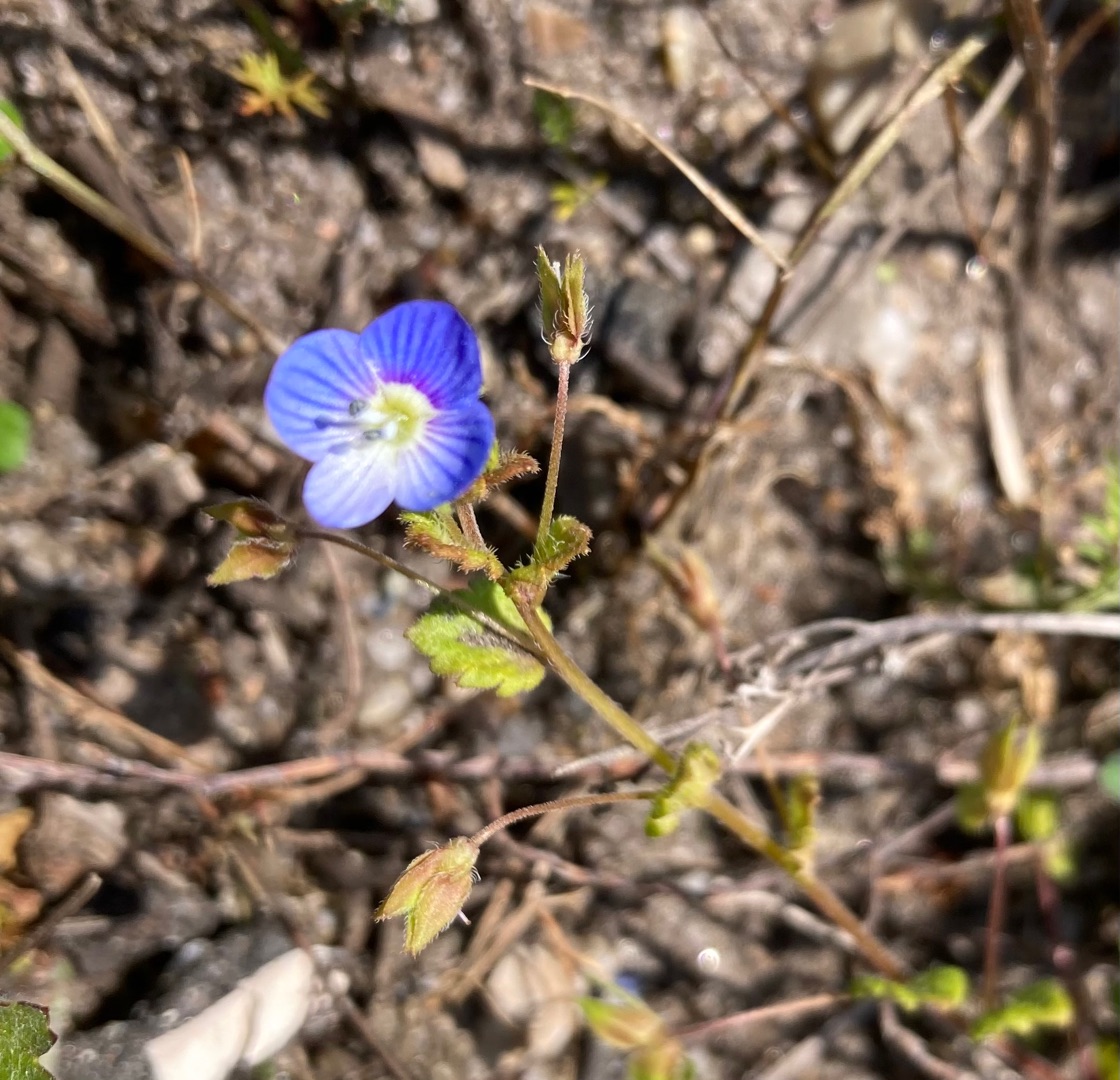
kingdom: Plantae
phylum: Tracheophyta
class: Magnoliopsida
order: Lamiales
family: Plantaginaceae
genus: Veronica
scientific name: Veronica persica
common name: Storkronet ærenpris
